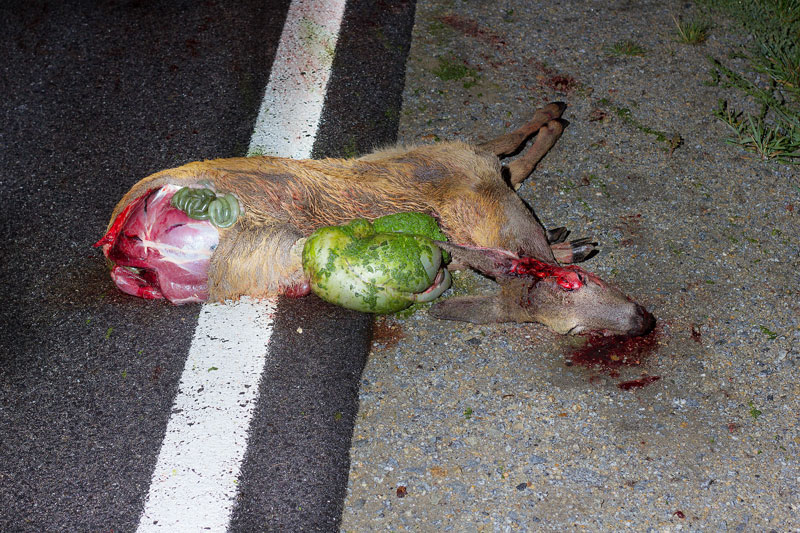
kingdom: Animalia
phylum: Chordata
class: Mammalia
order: Artiodactyla
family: Cervidae
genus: Capreolus
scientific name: Capreolus capreolus
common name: Western roe deer
